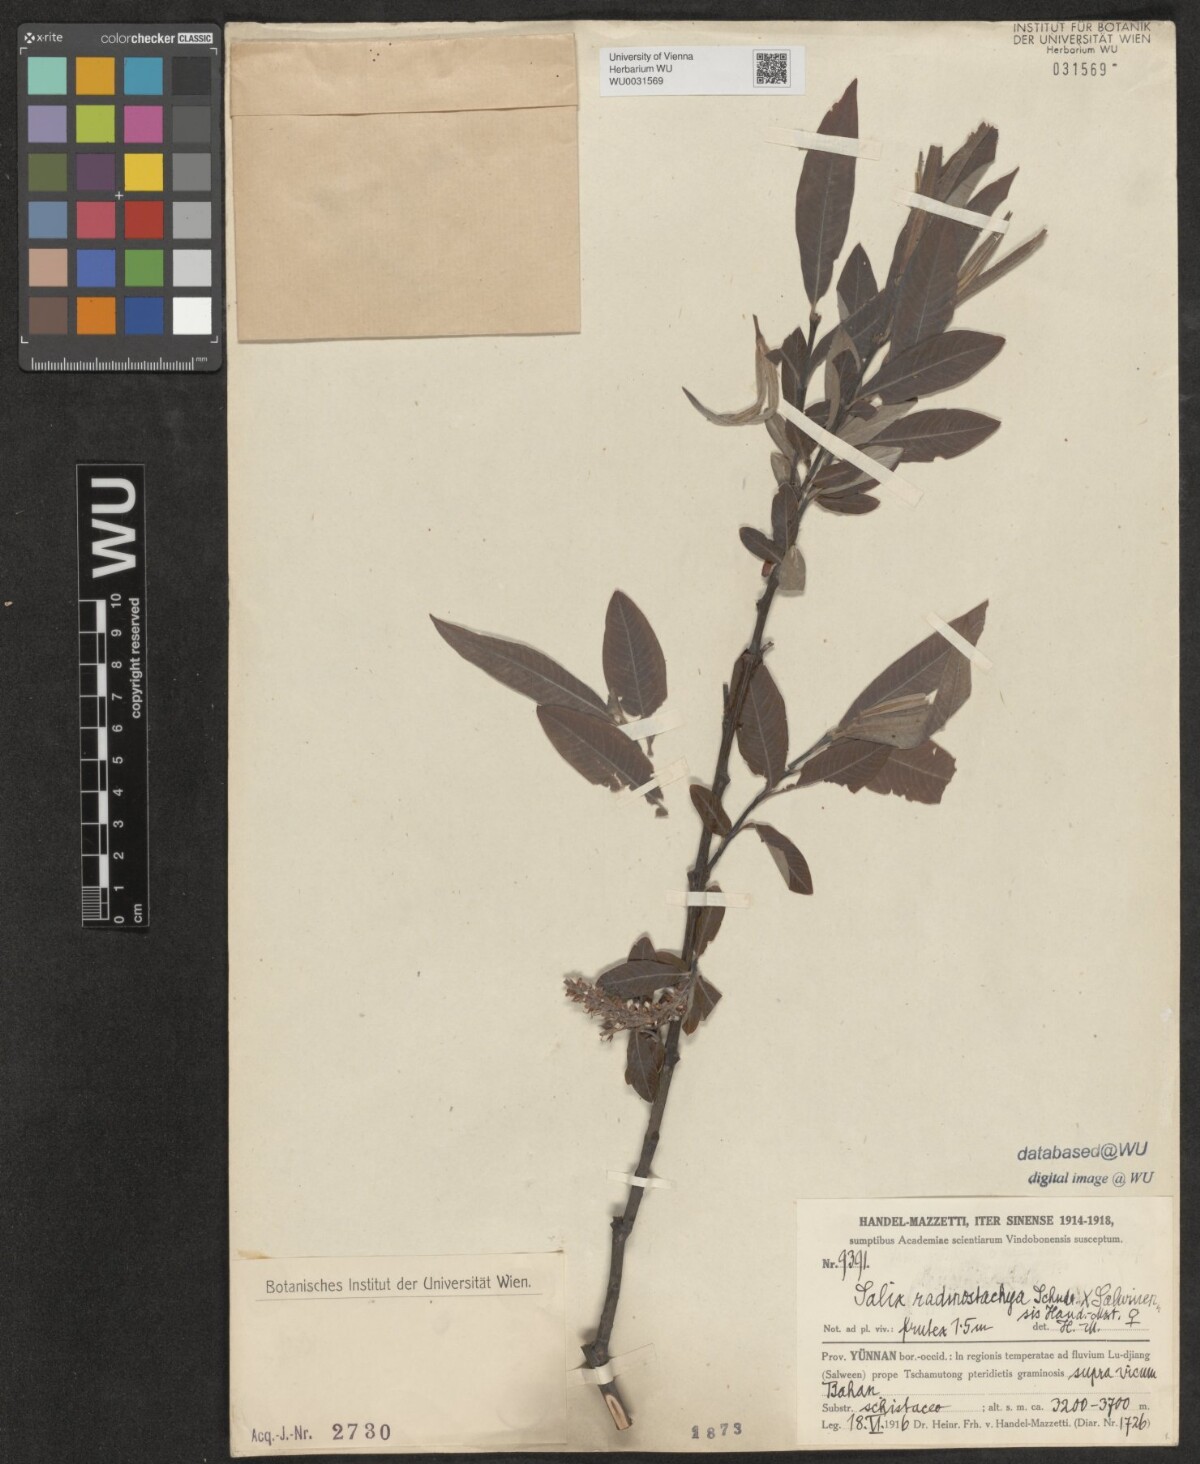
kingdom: Plantae
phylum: Tracheophyta
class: Magnoliopsida
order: Malpighiales
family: Salicaceae
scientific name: Salicaceae
